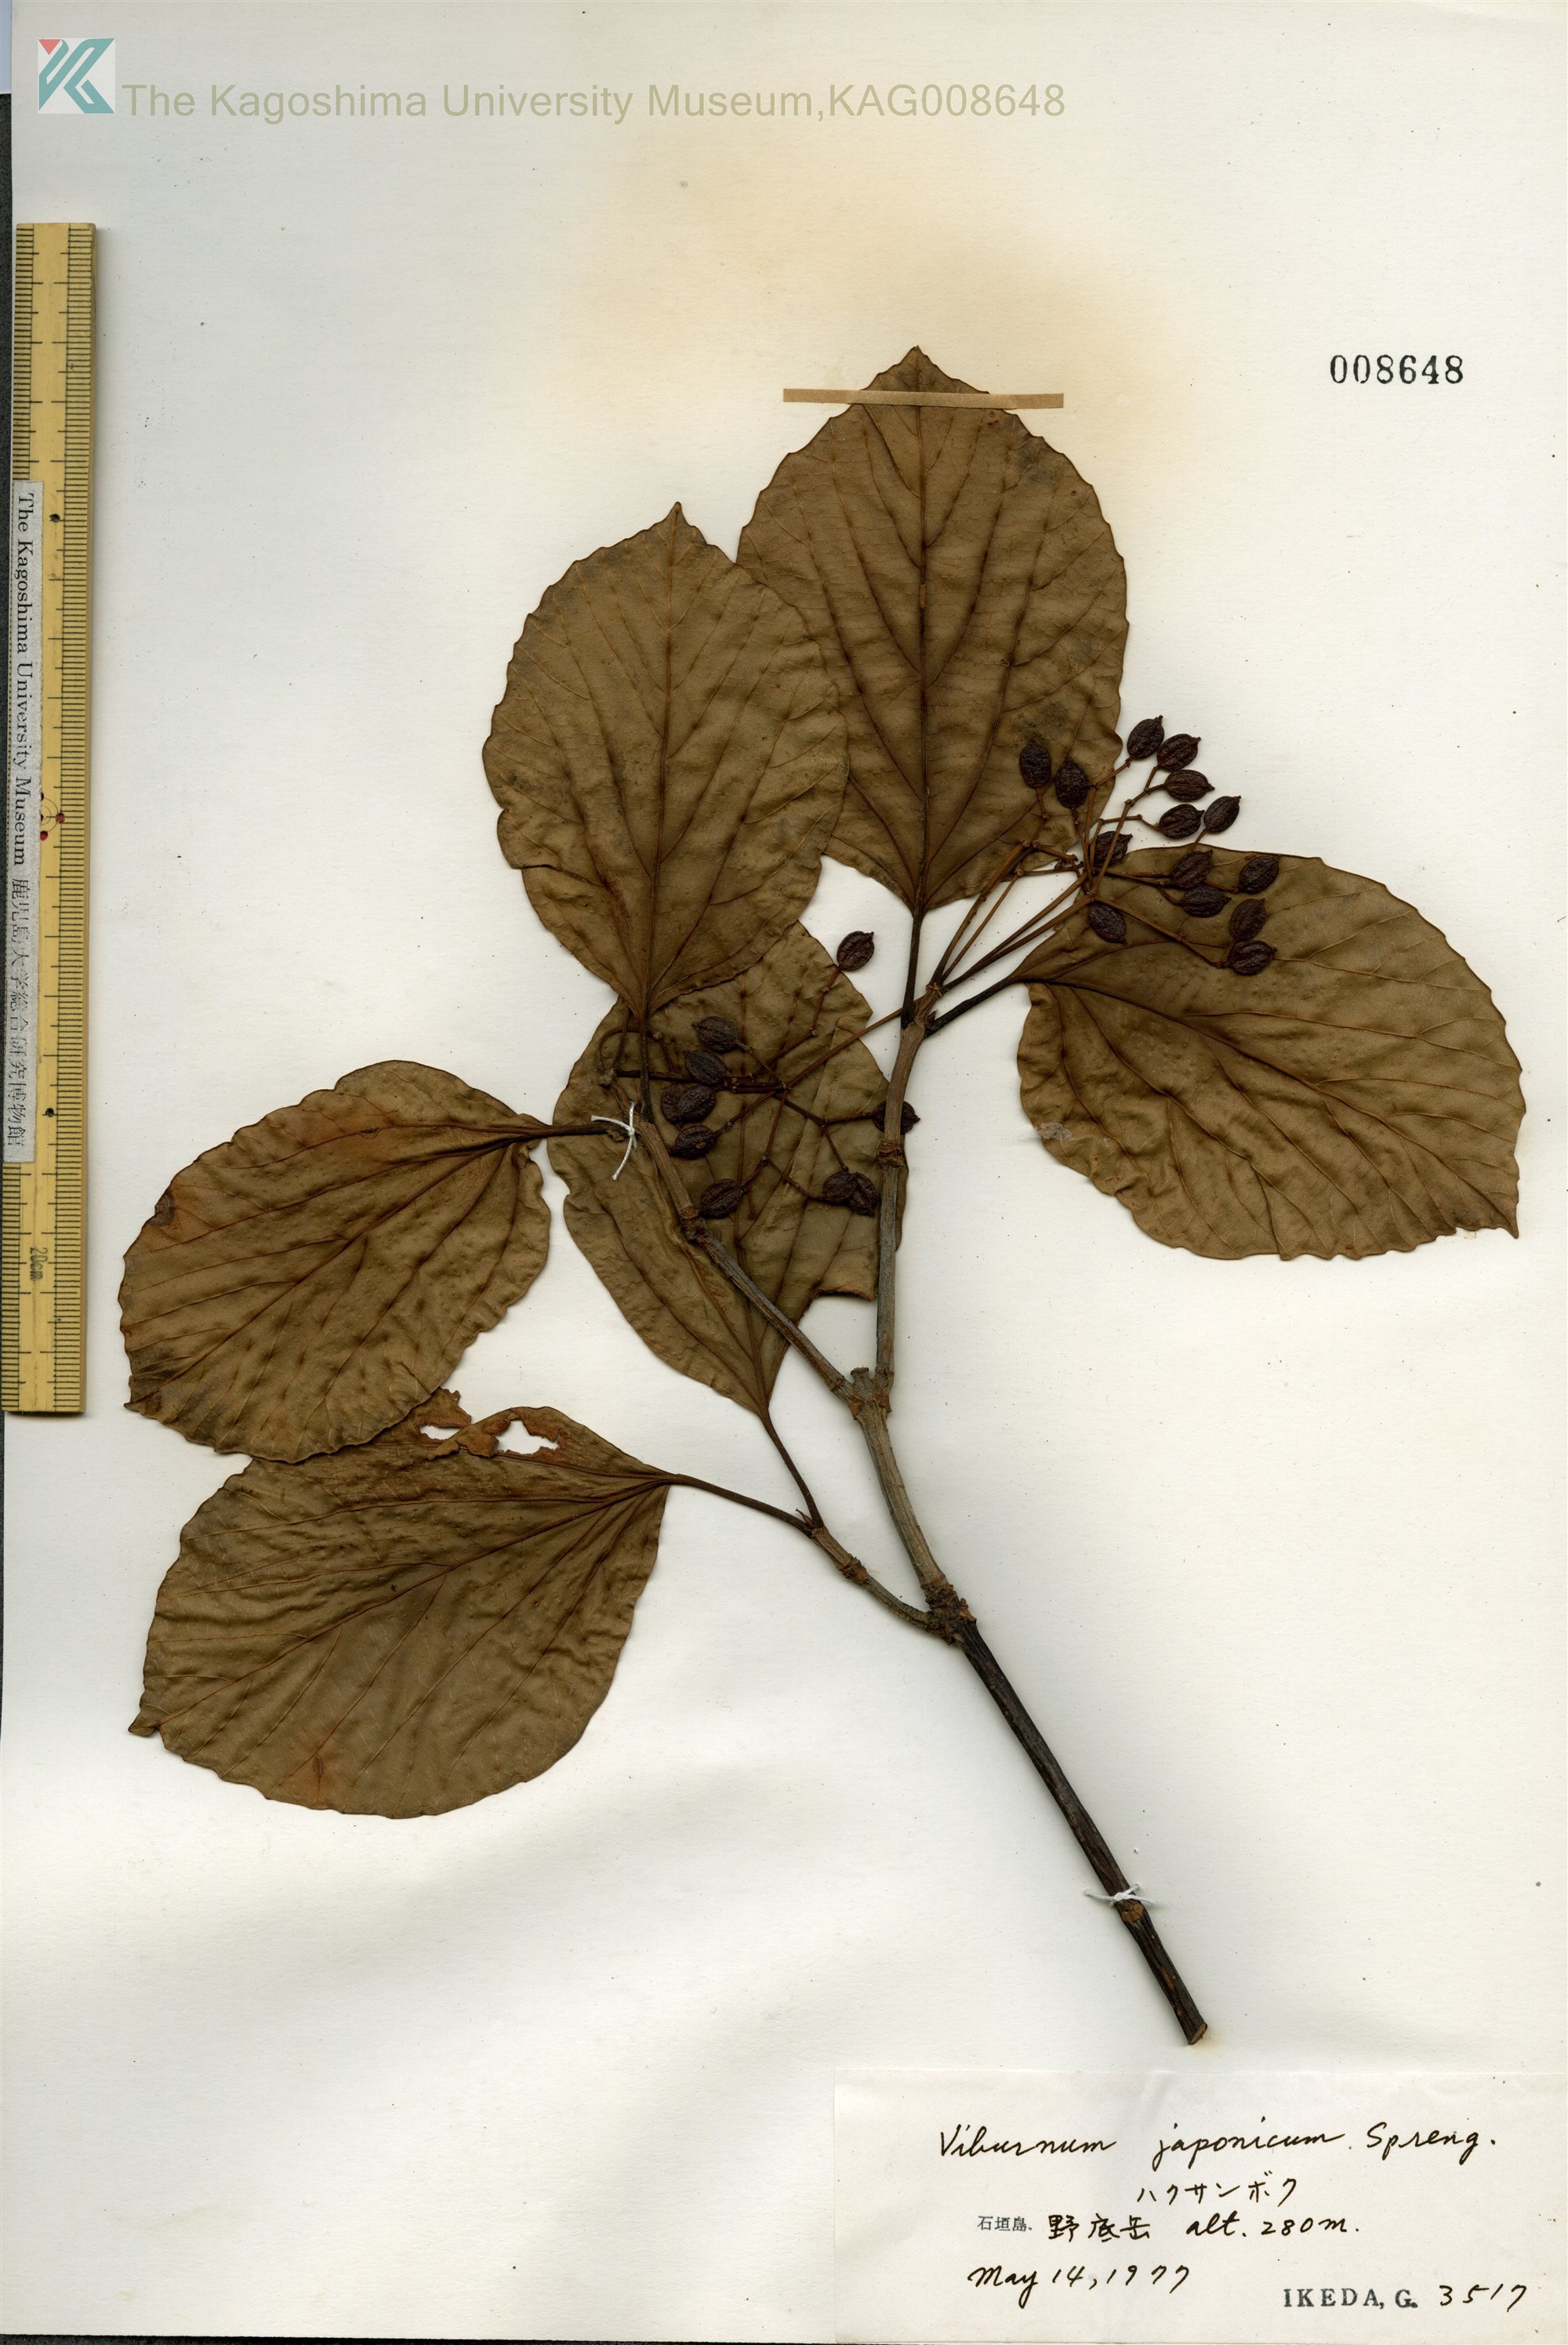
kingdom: Plantae
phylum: Tracheophyta
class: Magnoliopsida
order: Dipsacales
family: Viburnaceae
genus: Viburnum
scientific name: Viburnum japonicum
